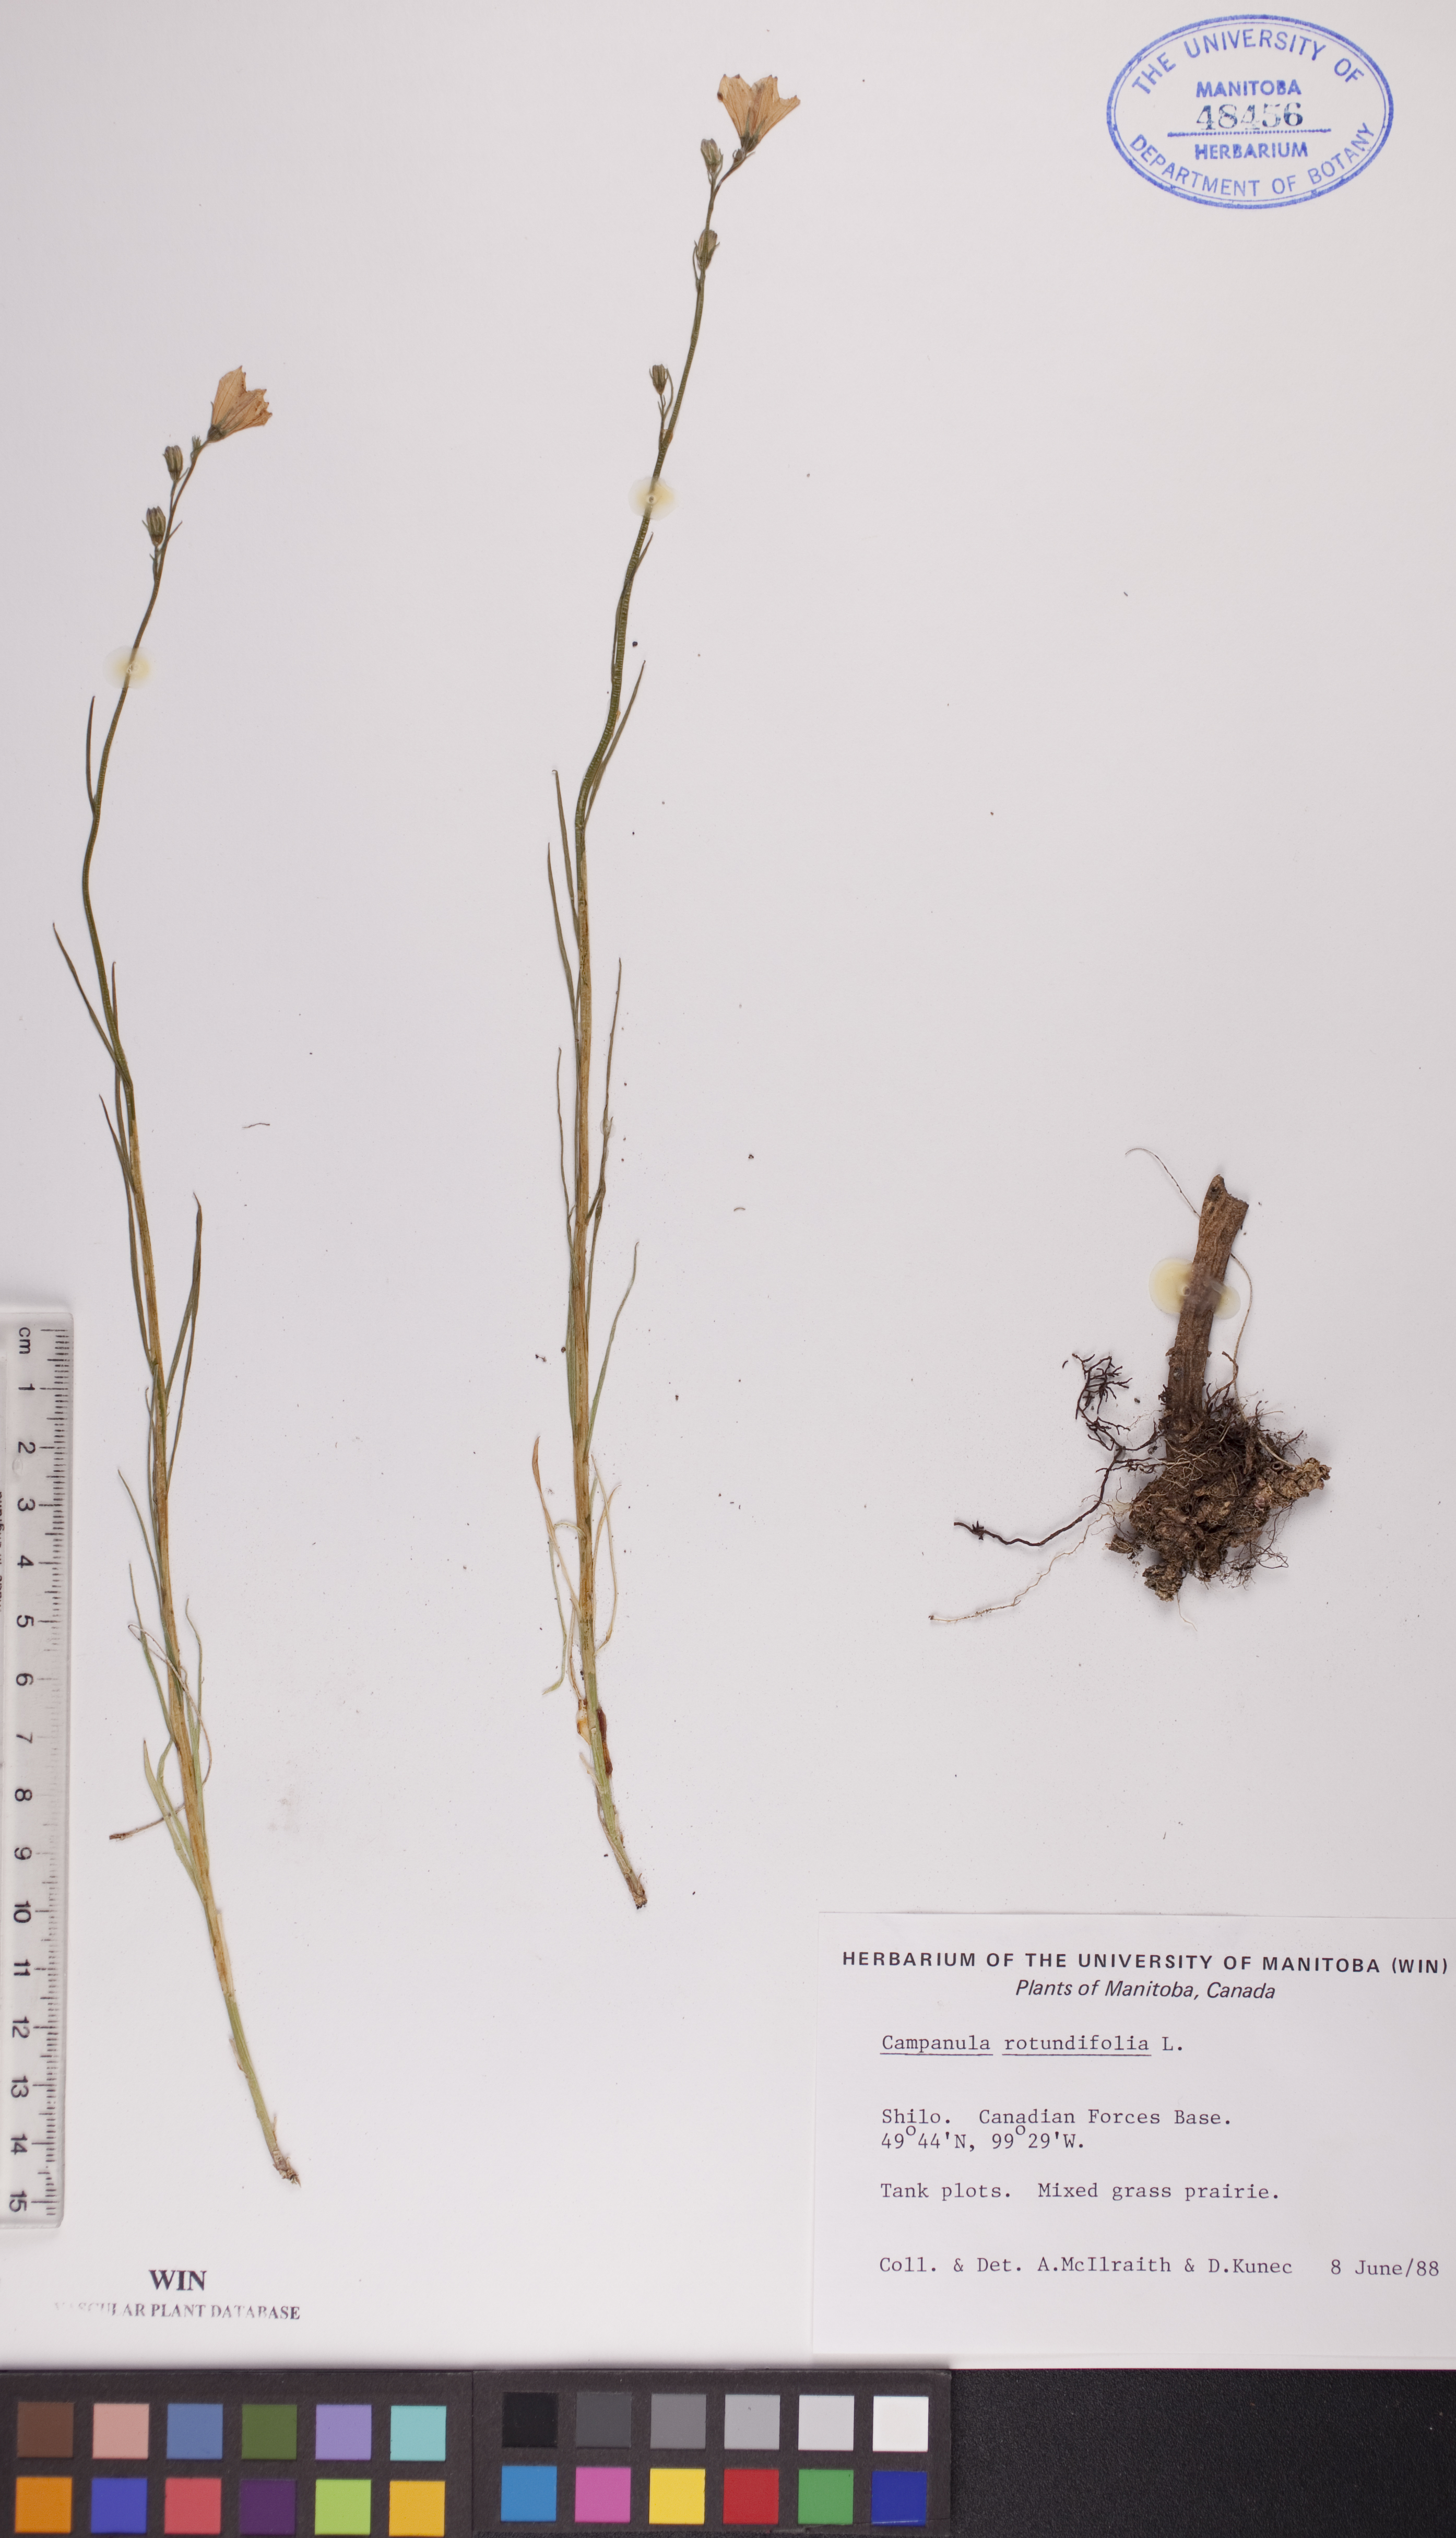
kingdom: Plantae
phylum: Tracheophyta
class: Magnoliopsida
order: Asterales
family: Campanulaceae
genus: Campanula
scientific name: Campanula rotundifolia
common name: Harebell
